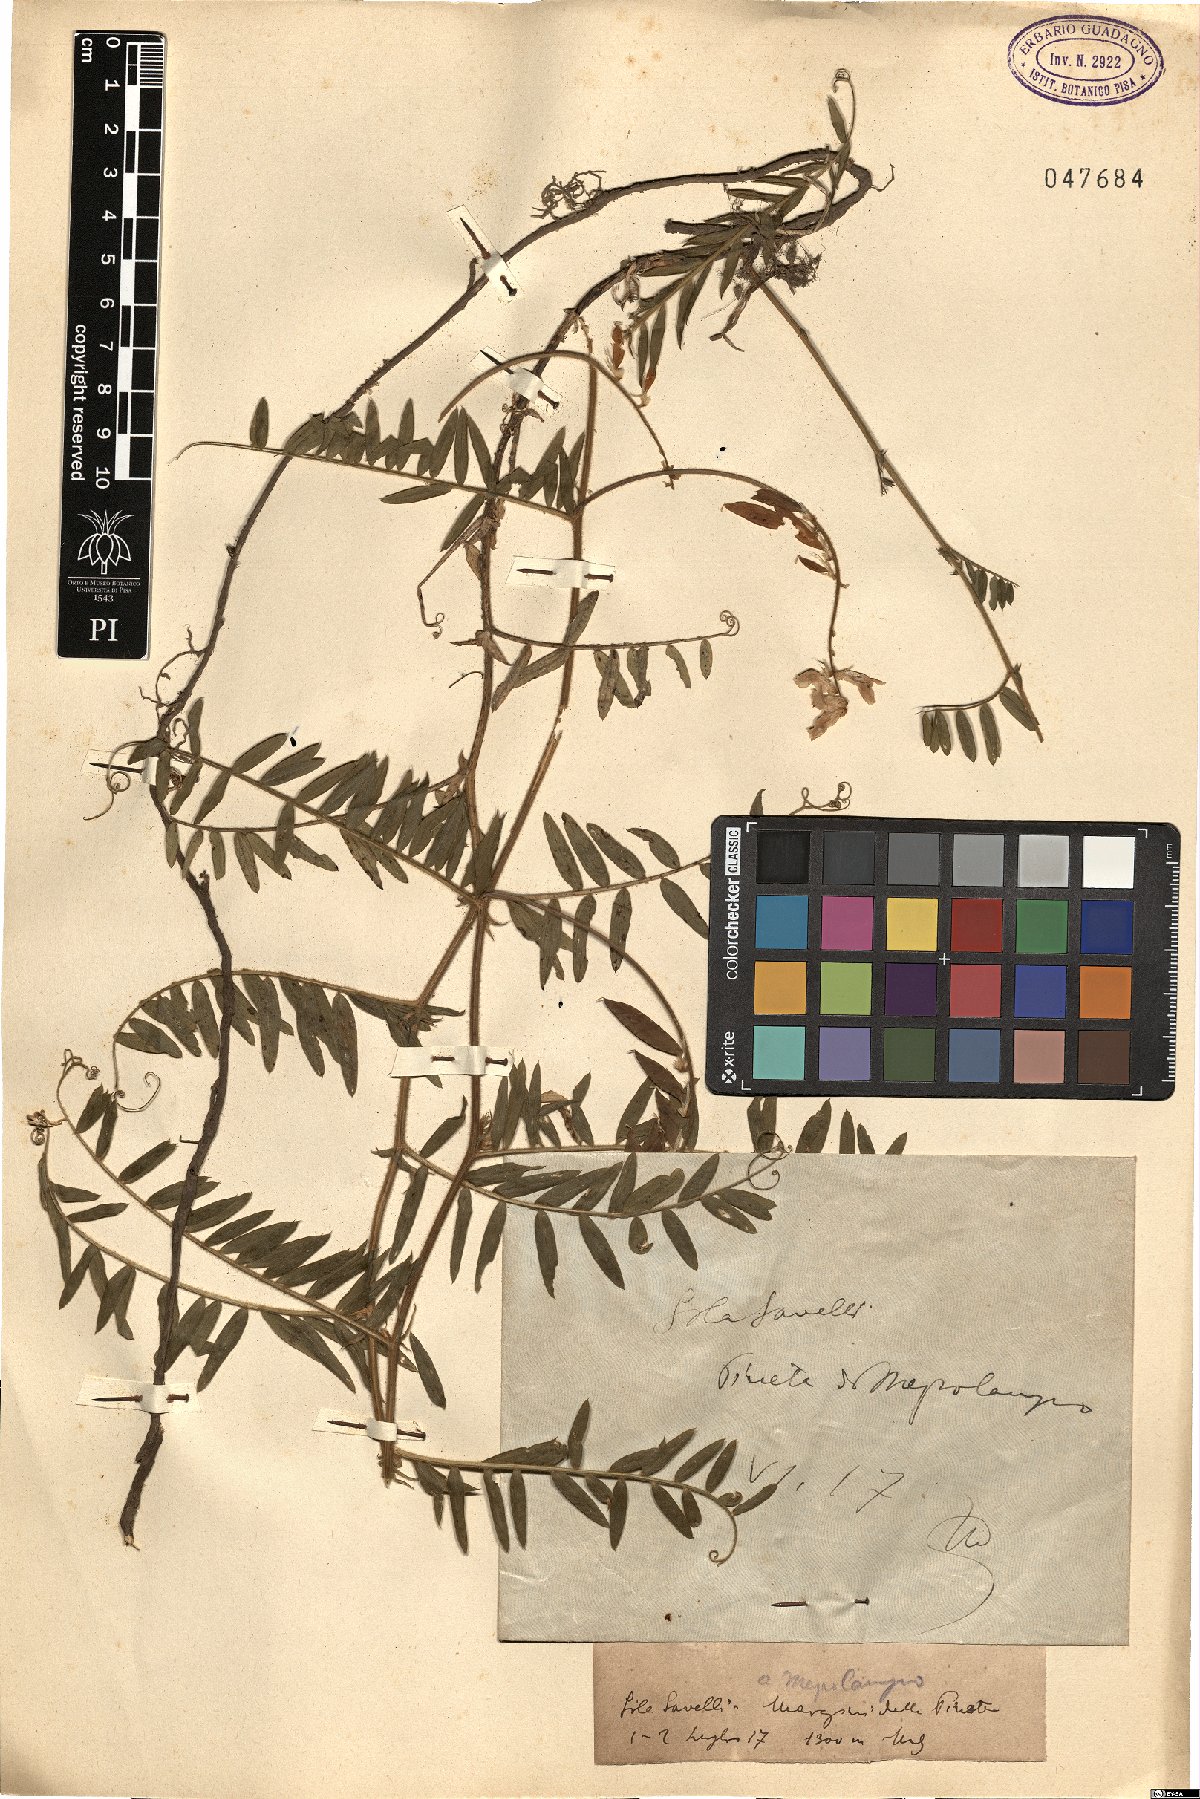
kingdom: Plantae
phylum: Tracheophyta
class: Magnoliopsida
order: Fabales
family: Fabaceae
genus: Vicia
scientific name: Vicia
